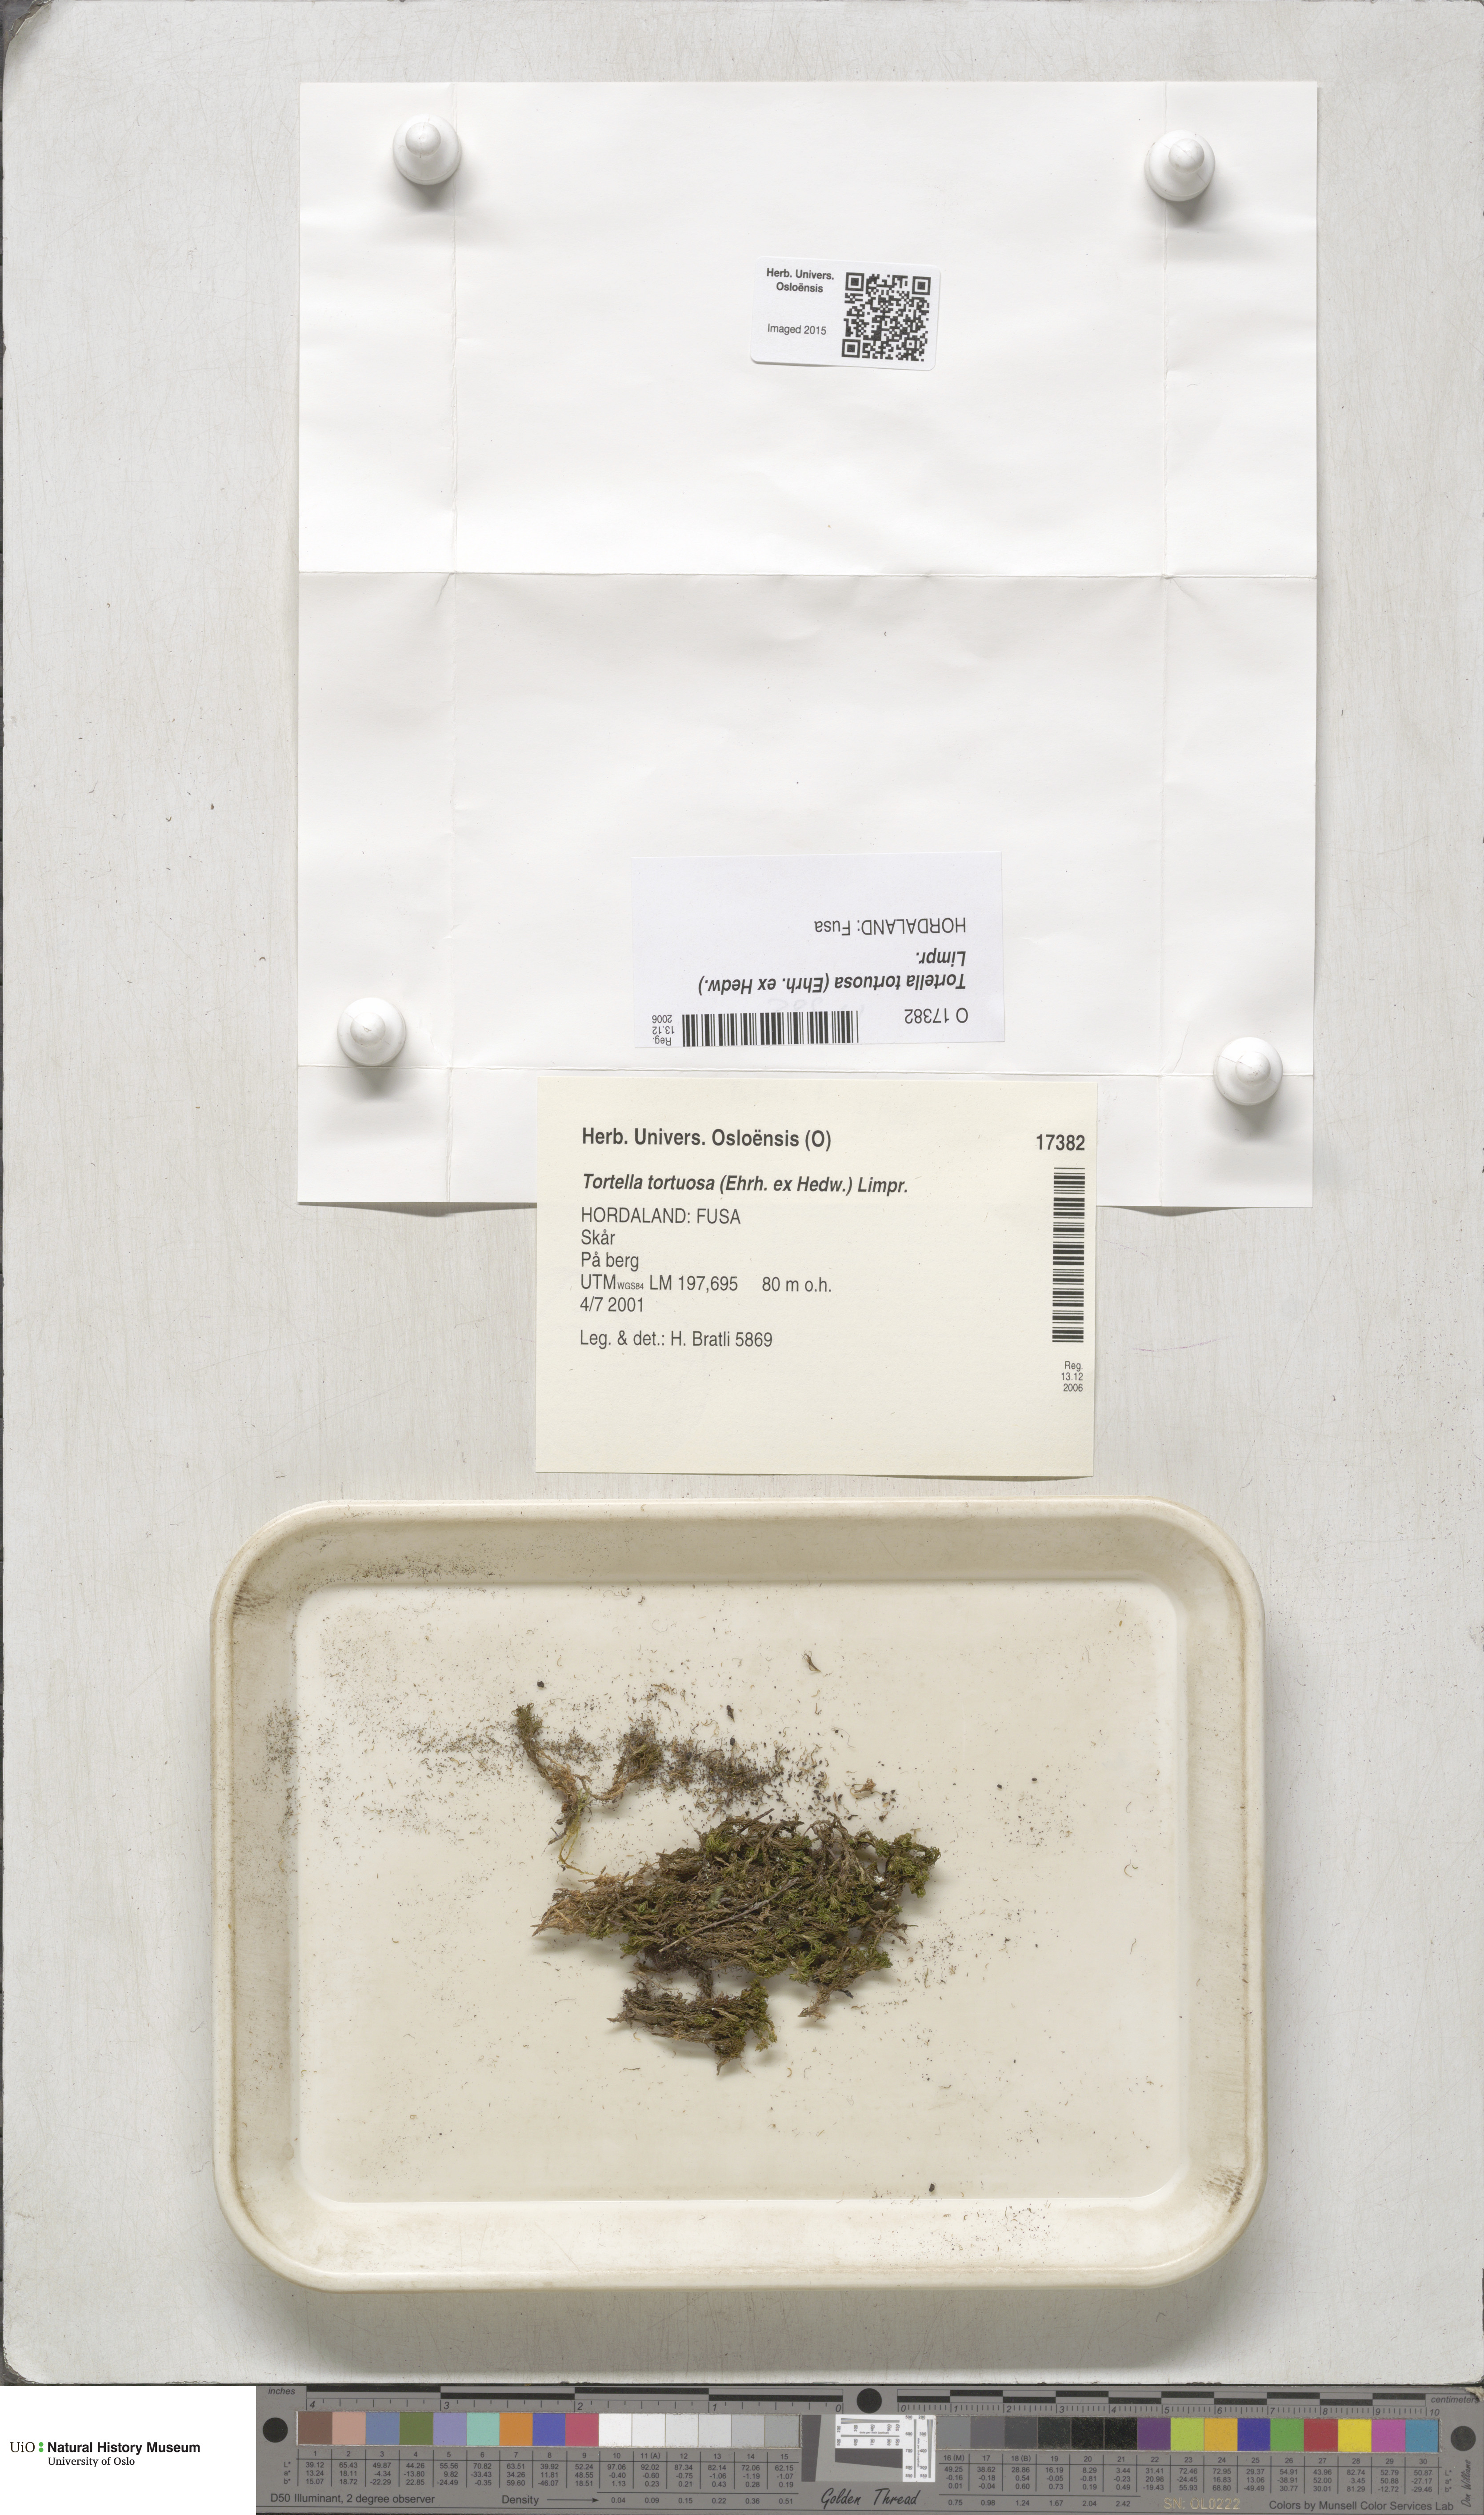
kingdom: Plantae
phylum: Bryophyta
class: Bryopsida
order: Pottiales
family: Pottiaceae
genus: Tortella
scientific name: Tortella tortuosa
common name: Frizzled crisp moss
